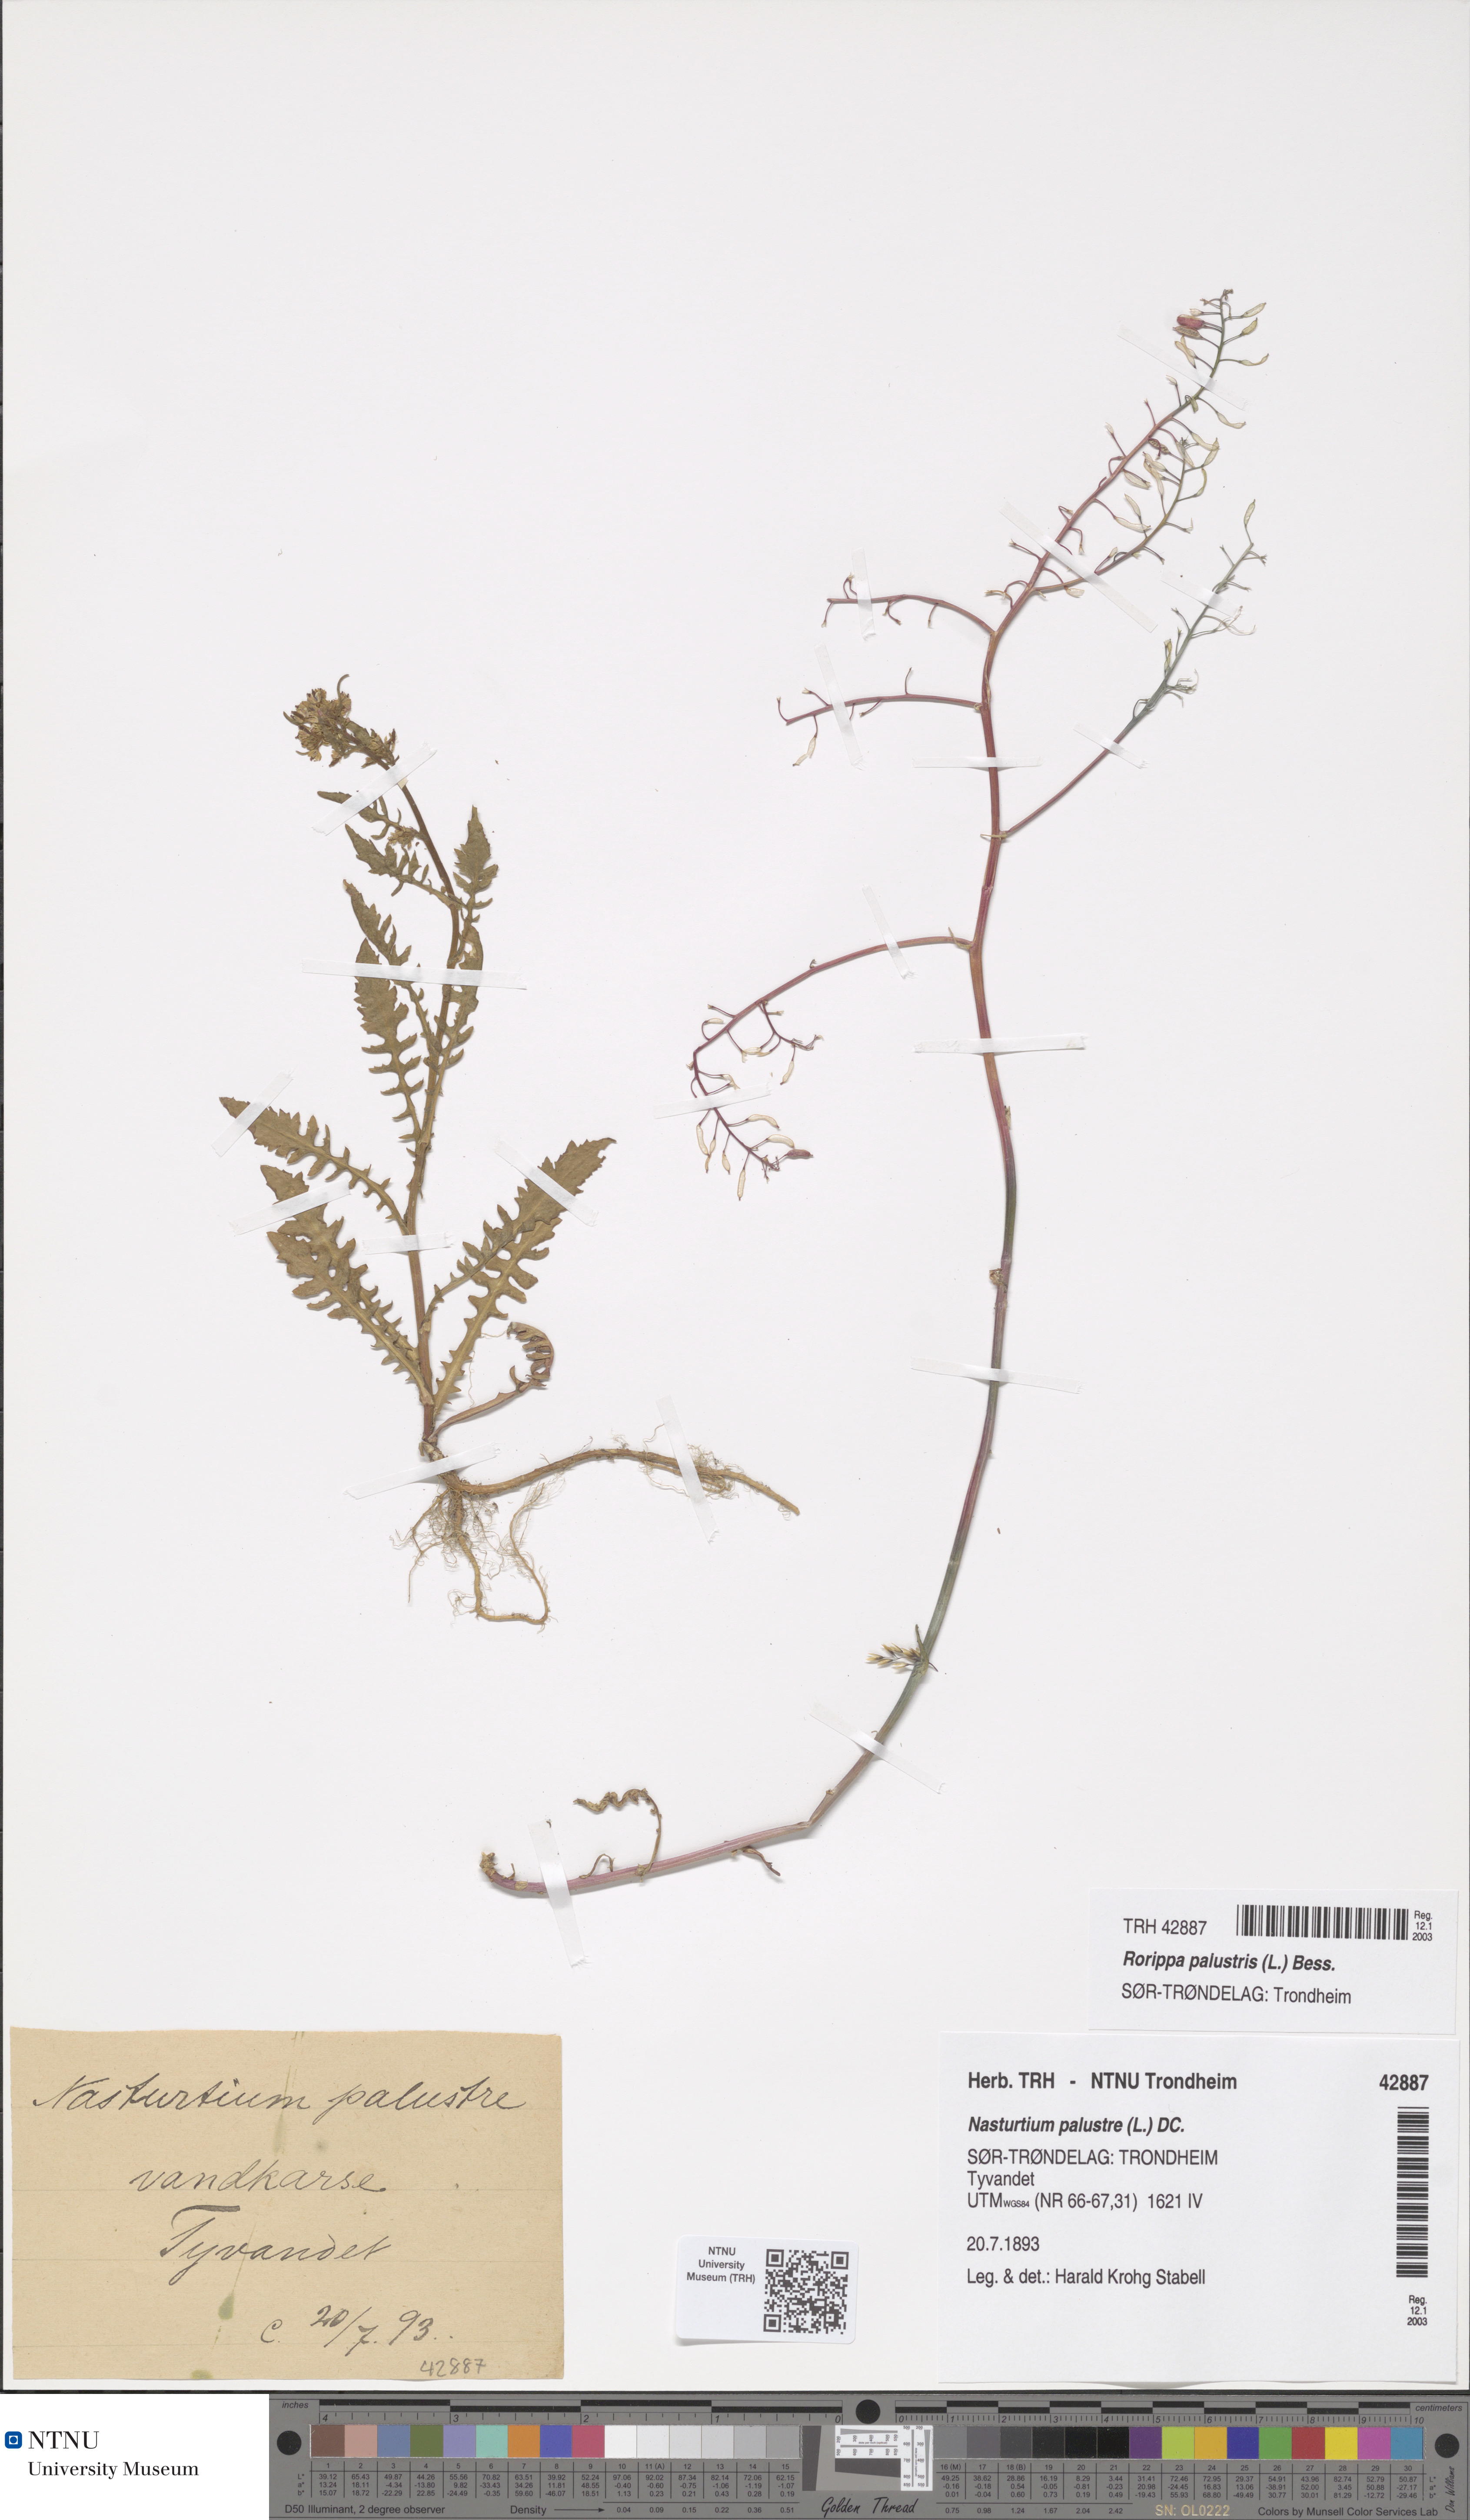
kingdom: Plantae
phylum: Tracheophyta
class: Magnoliopsida
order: Brassicales
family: Brassicaceae
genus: Rorippa
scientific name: Rorippa palustris
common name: Marsh yellow-cress
